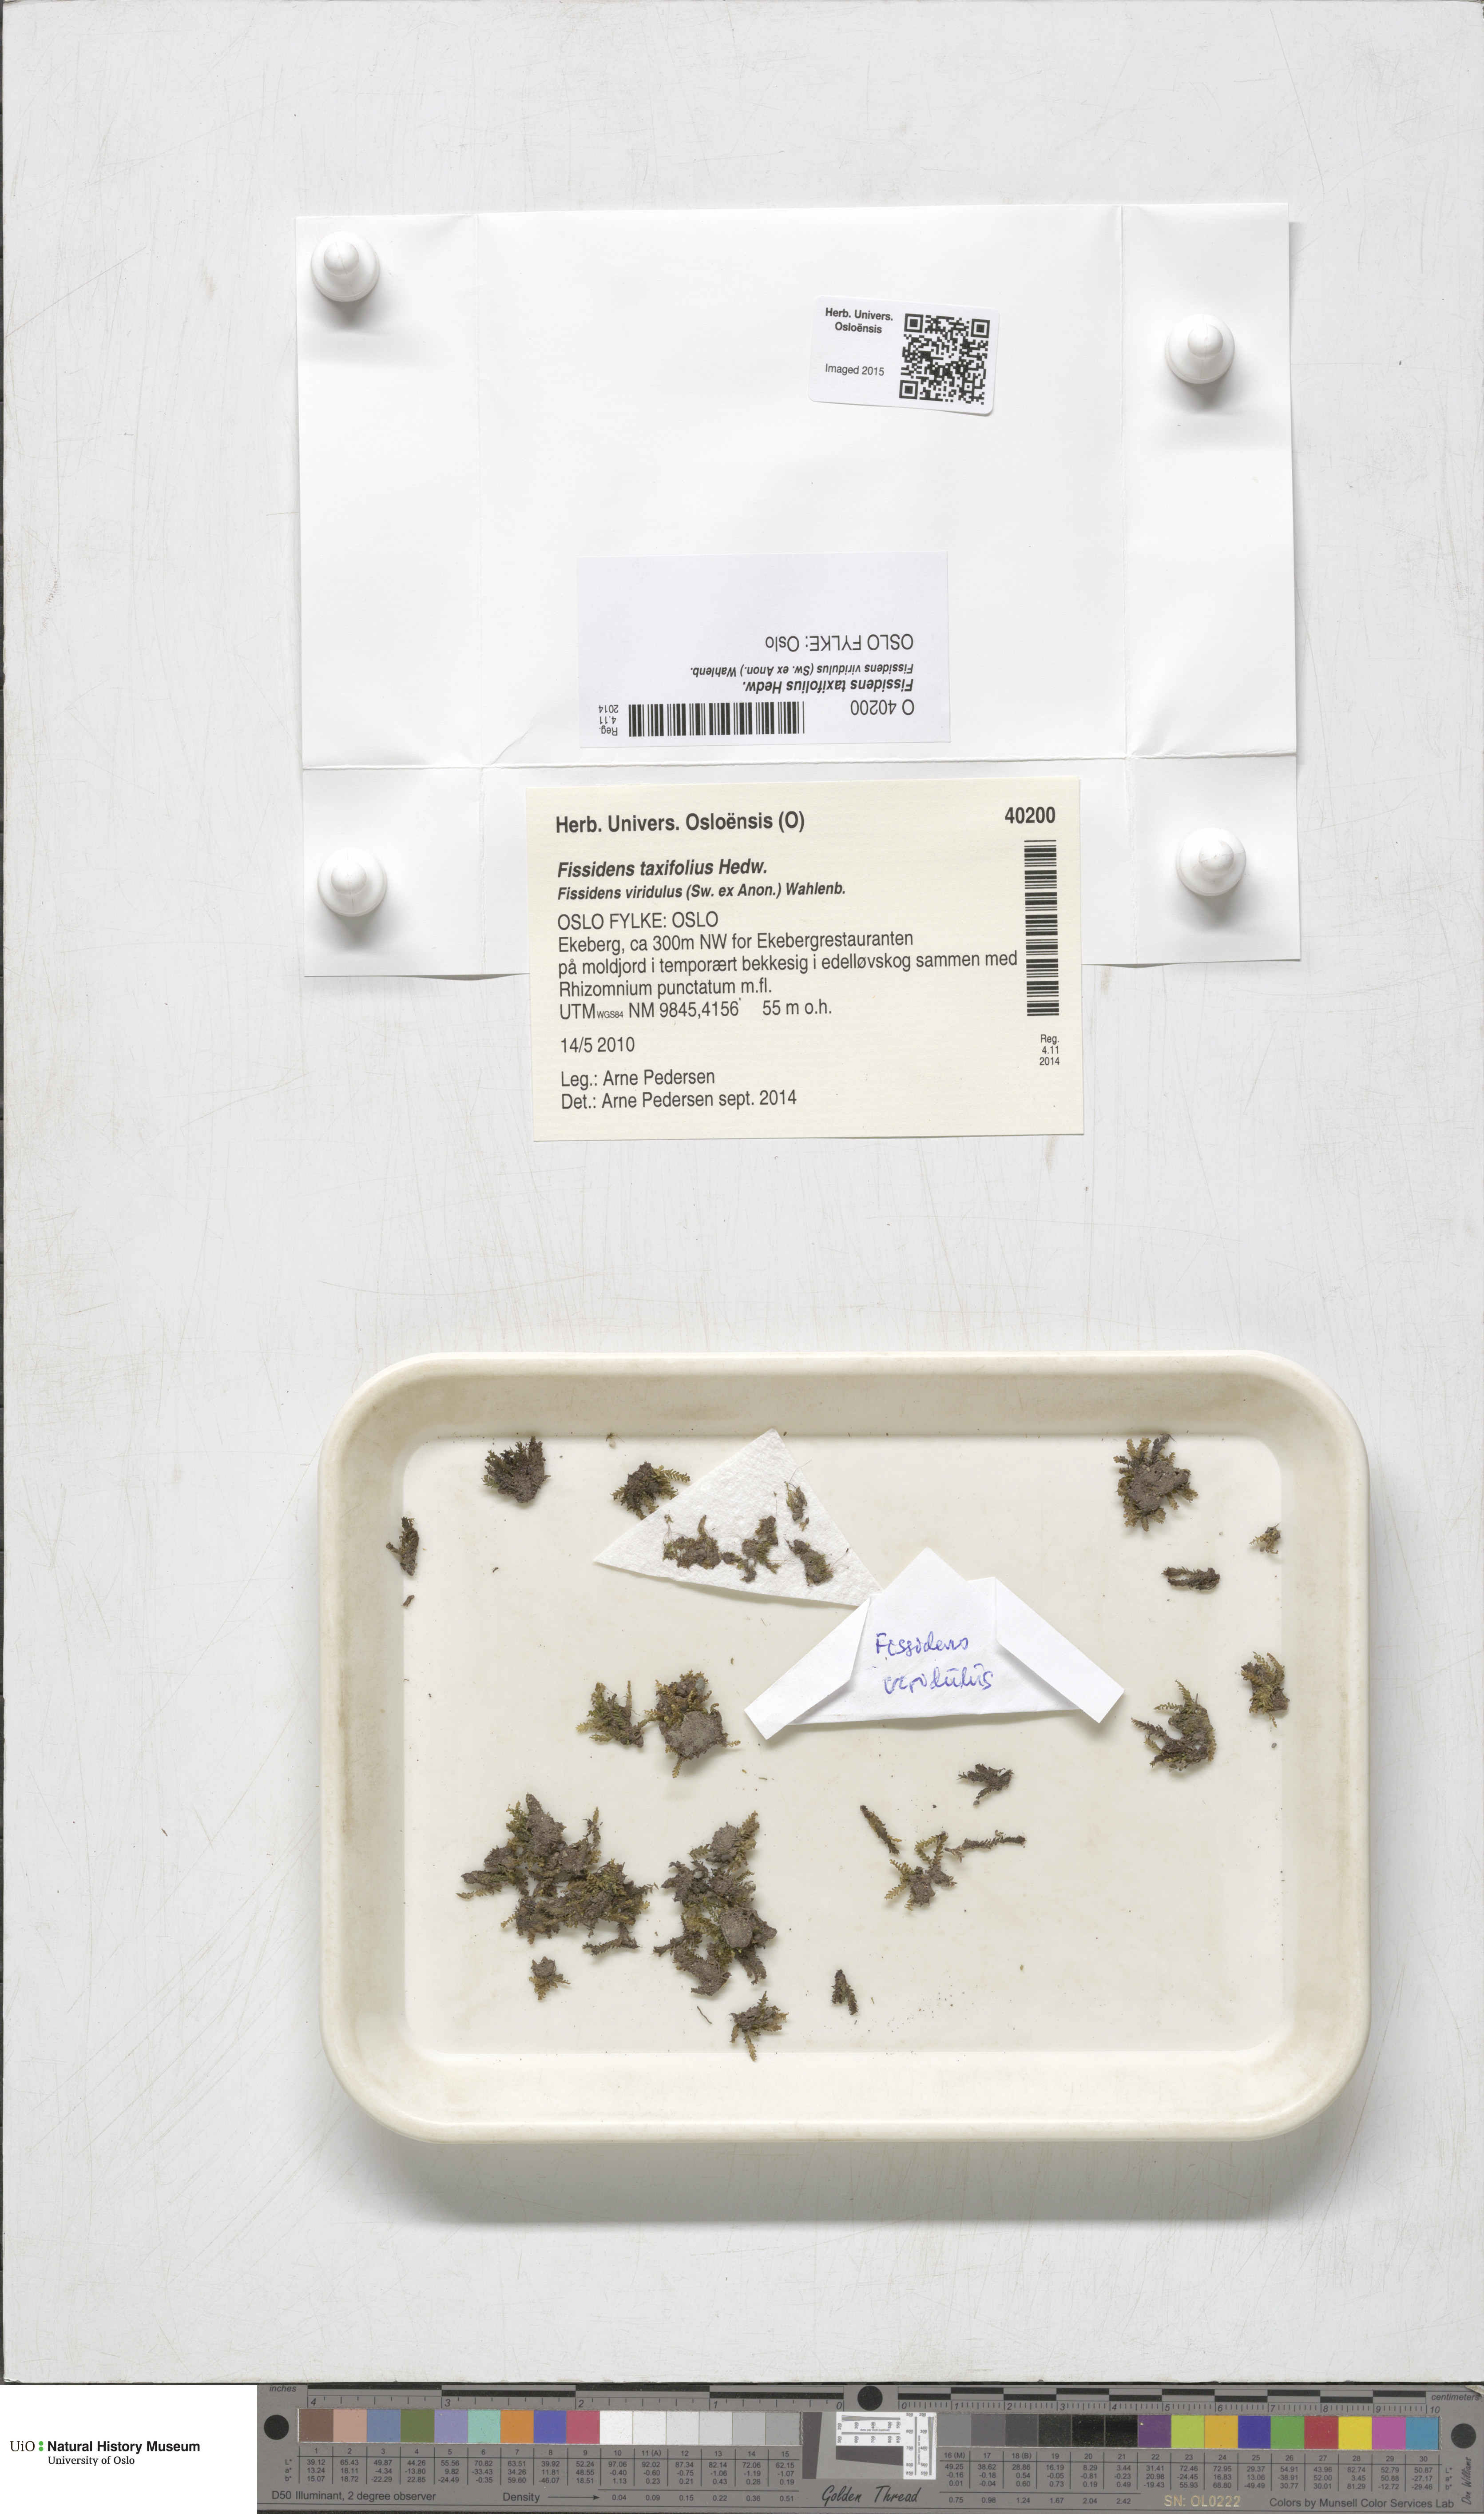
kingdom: Plantae
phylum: Bryophyta
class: Bryopsida
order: Dicranales
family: Fissidentaceae
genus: Fissidens
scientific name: Fissidens taxifolius
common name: Yew-leaved pocket moss
